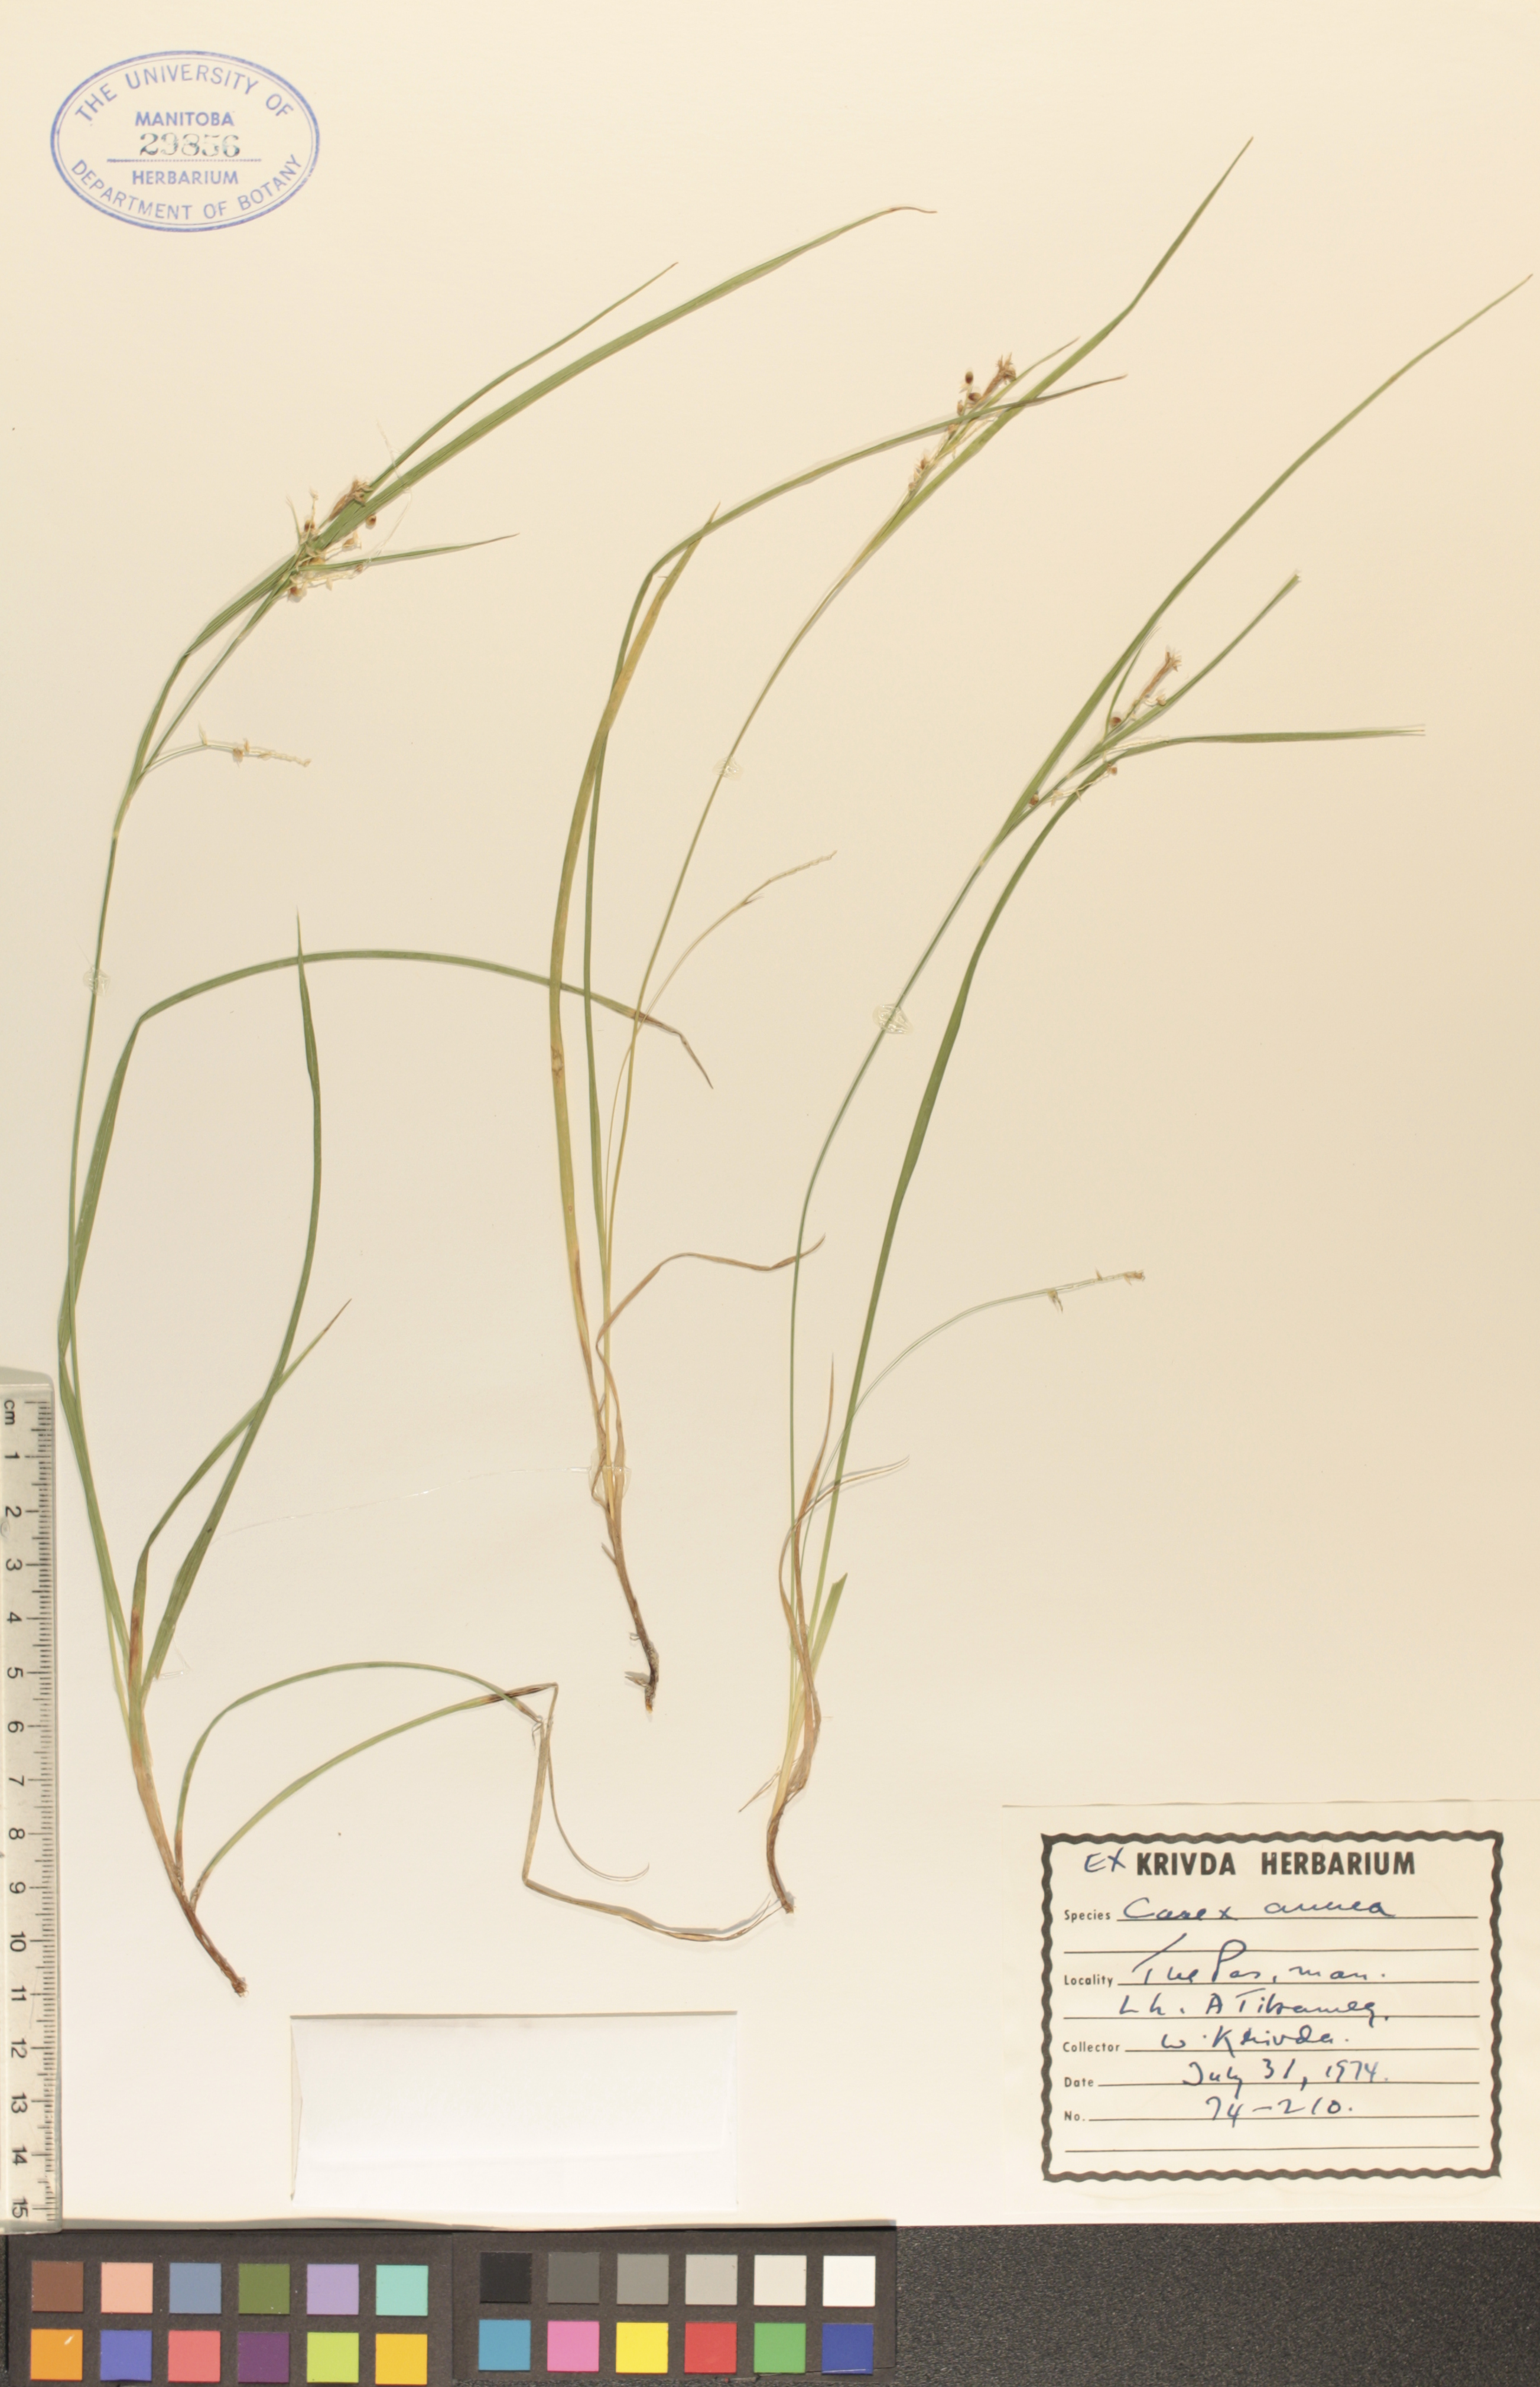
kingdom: Plantae
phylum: Tracheophyta
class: Liliopsida
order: Poales
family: Cyperaceae
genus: Carex
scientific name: Carex aurea
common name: Golden sedge
